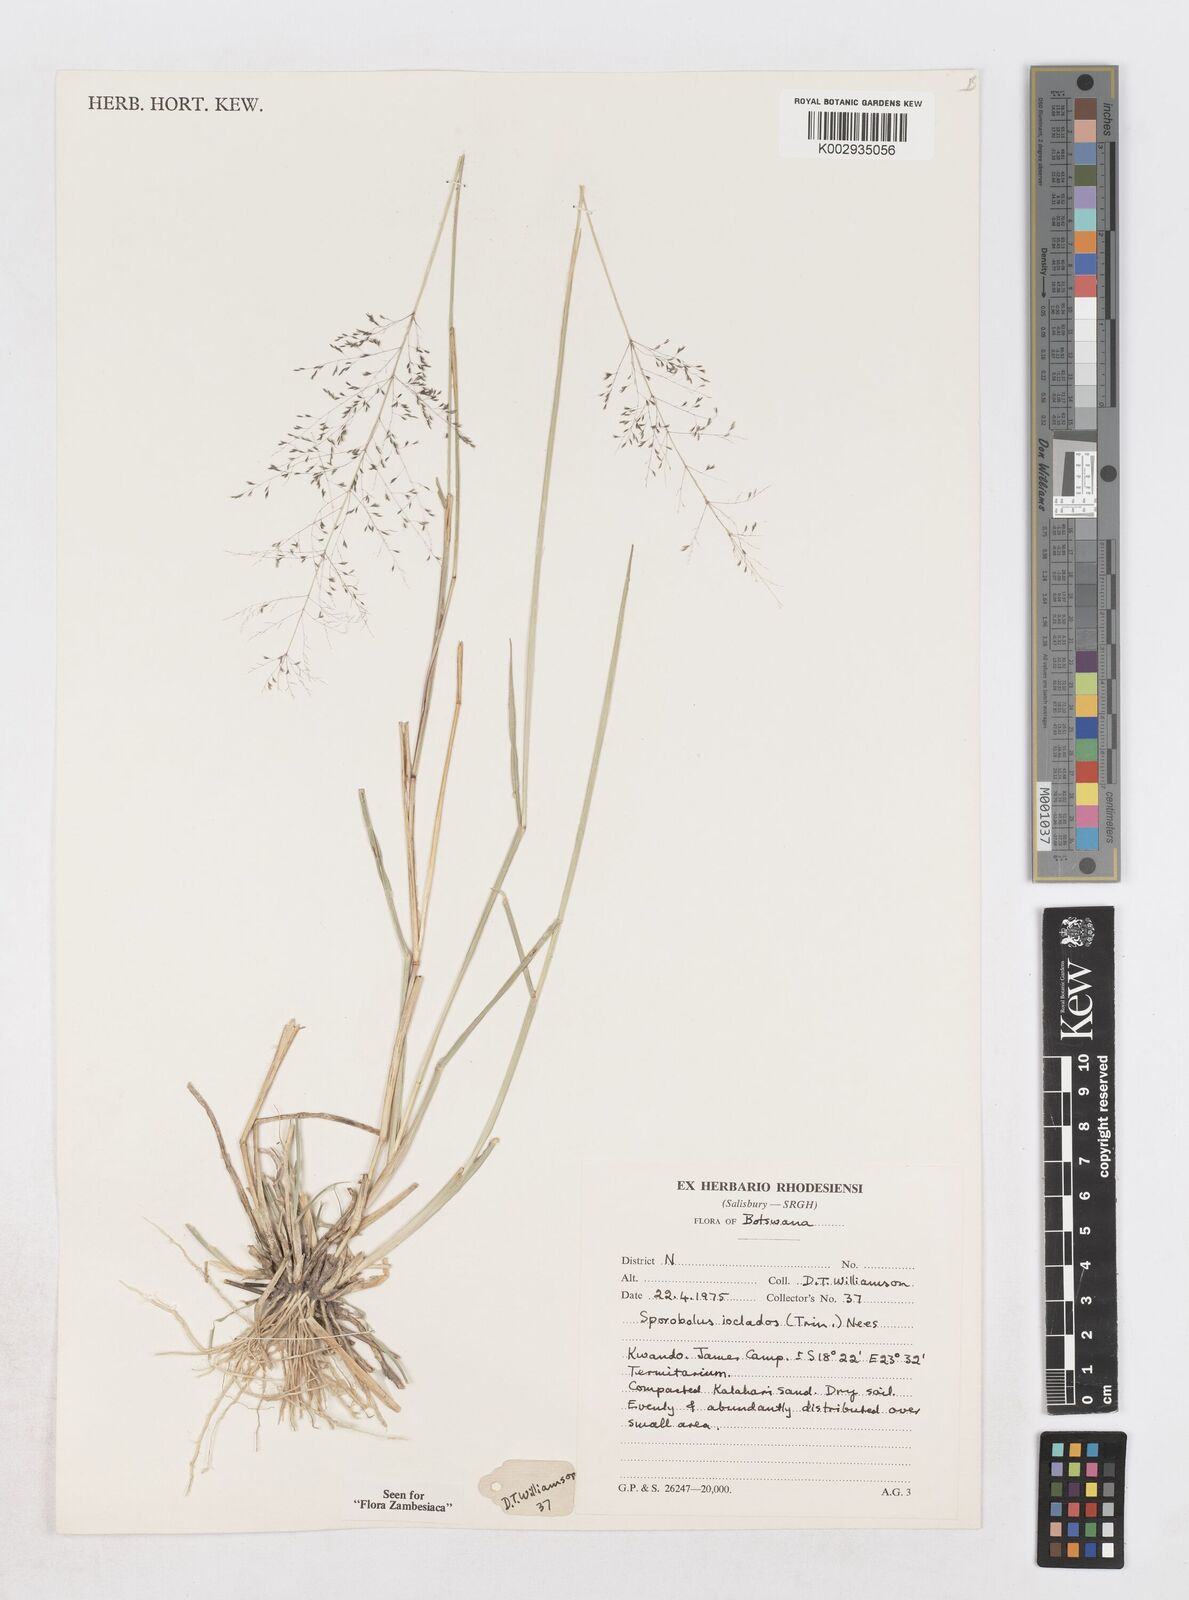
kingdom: Plantae
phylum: Tracheophyta
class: Liliopsida
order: Poales
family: Poaceae
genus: Sporobolus
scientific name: Sporobolus ioclados
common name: Pan dropseed
